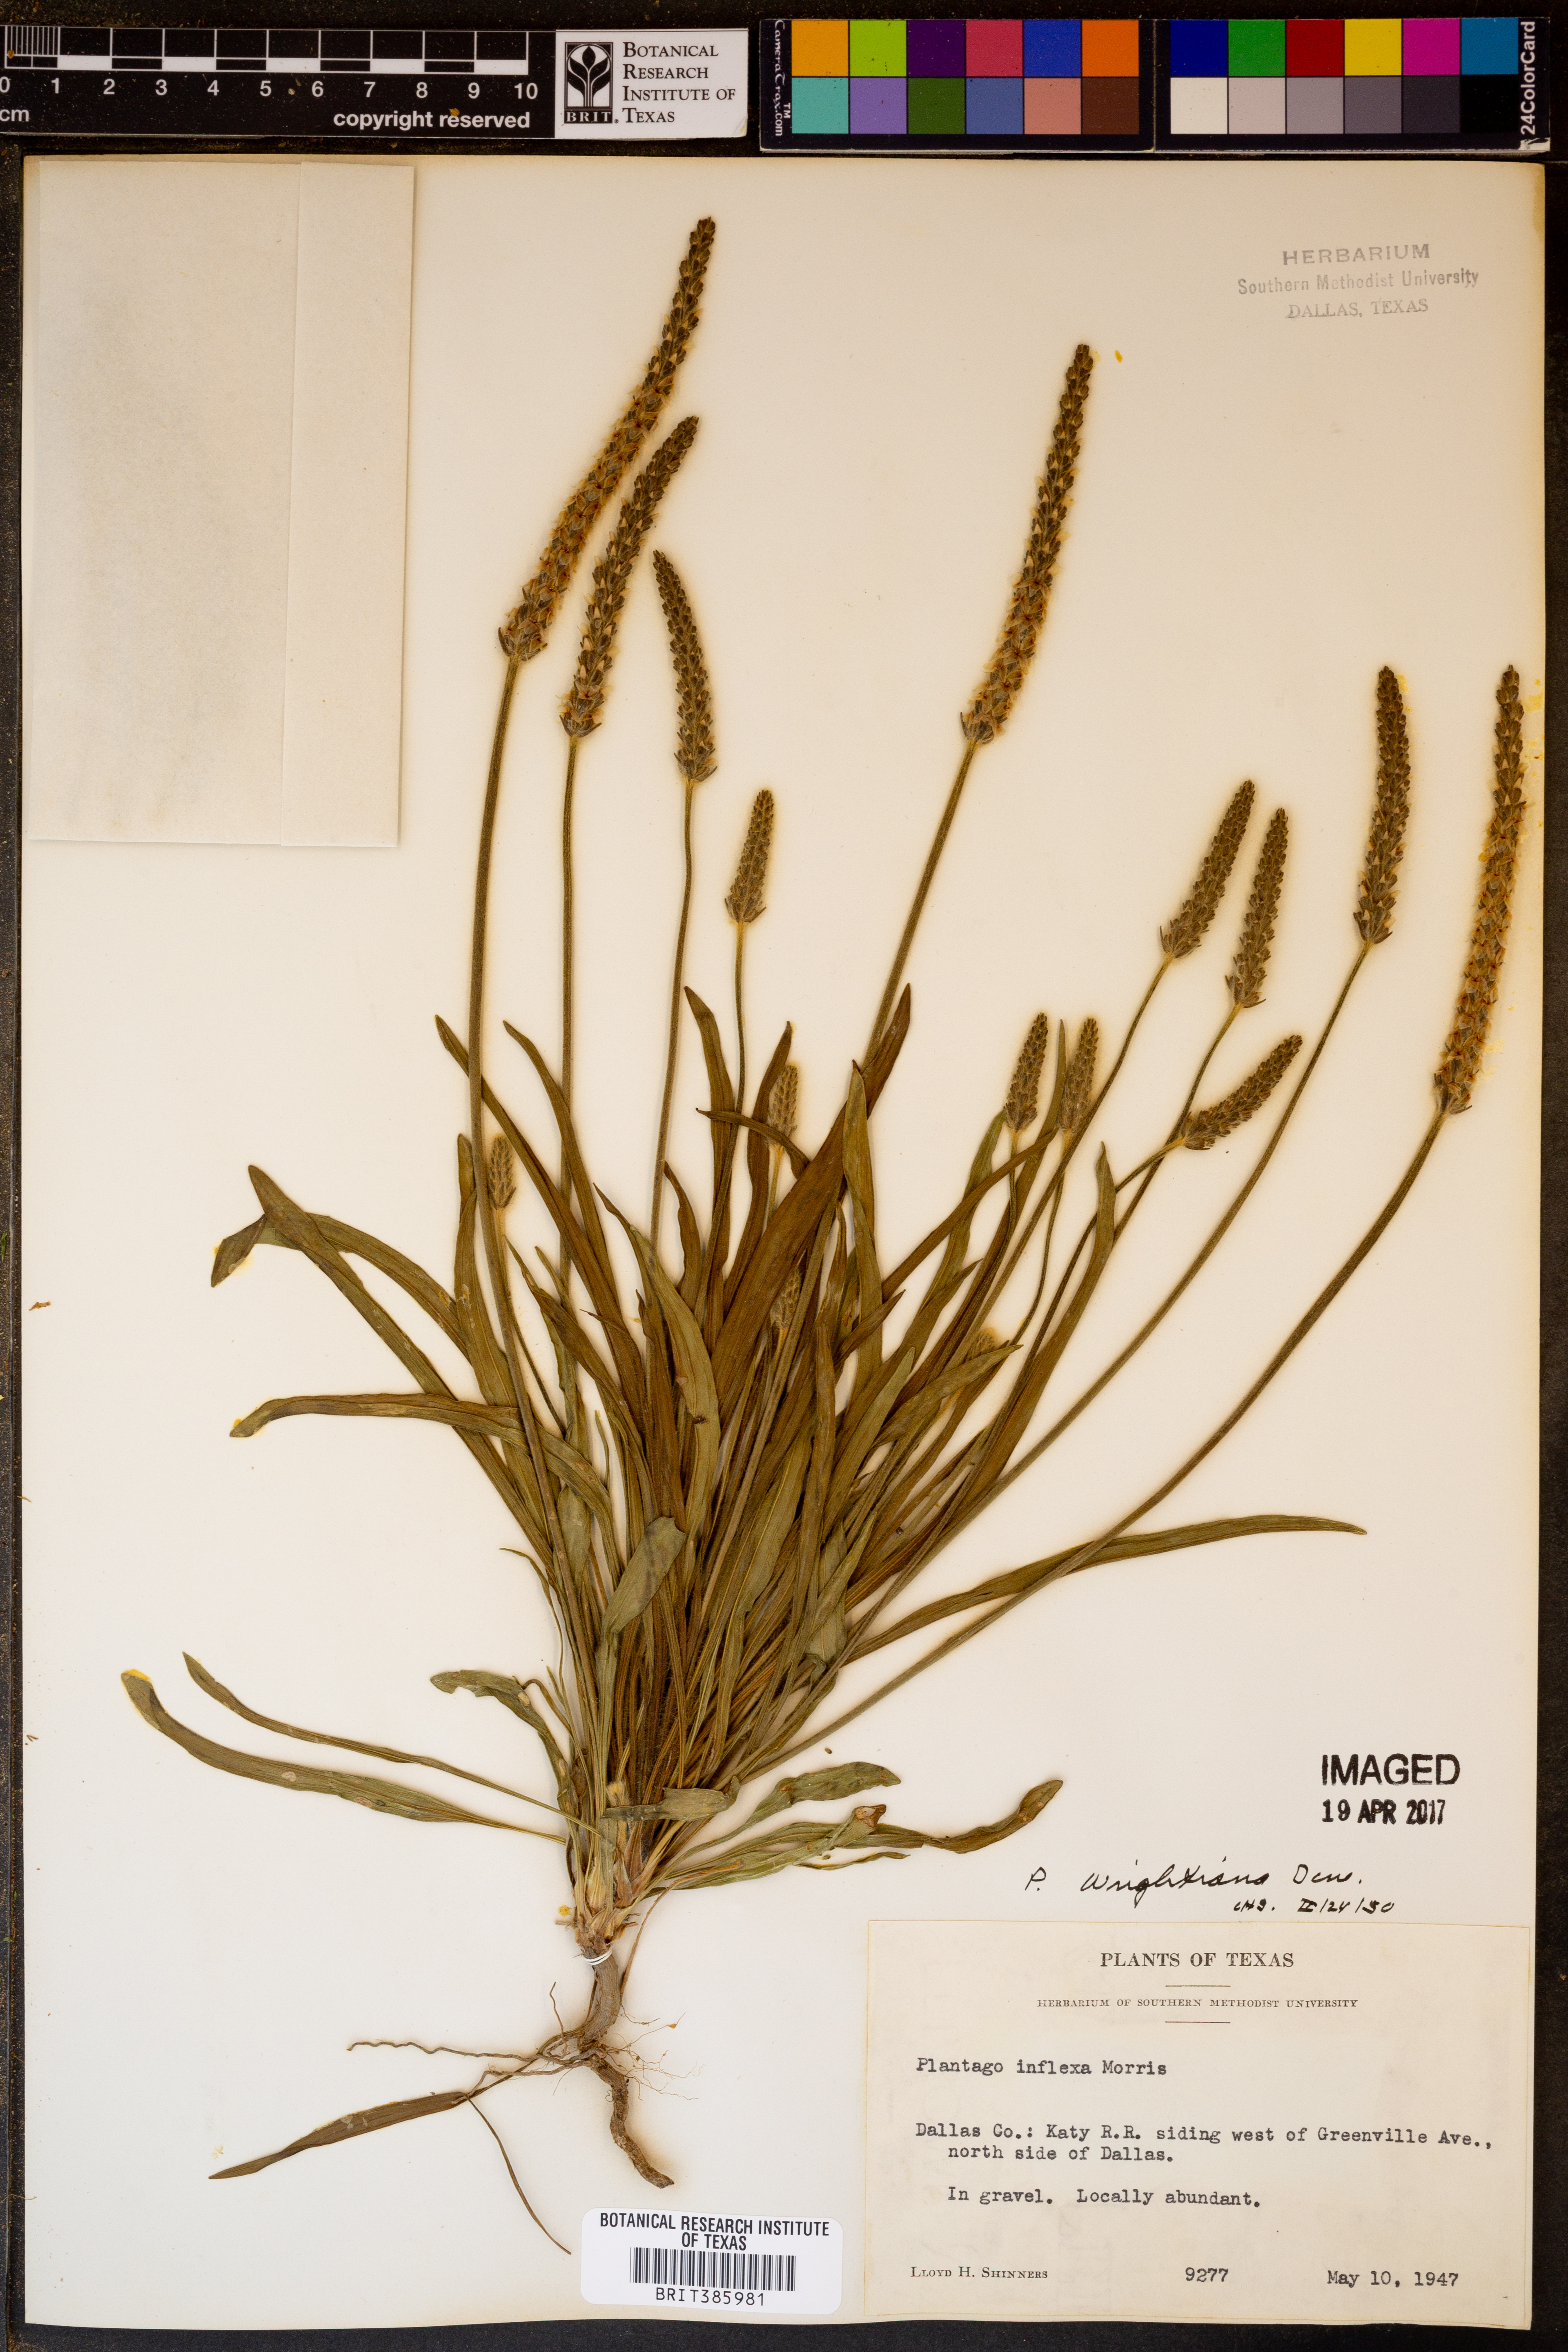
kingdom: Plantae
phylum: Tracheophyta
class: Magnoliopsida
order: Lamiales
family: Plantaginaceae
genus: Plantago
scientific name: Plantago wrightiana
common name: Wright's plantain
